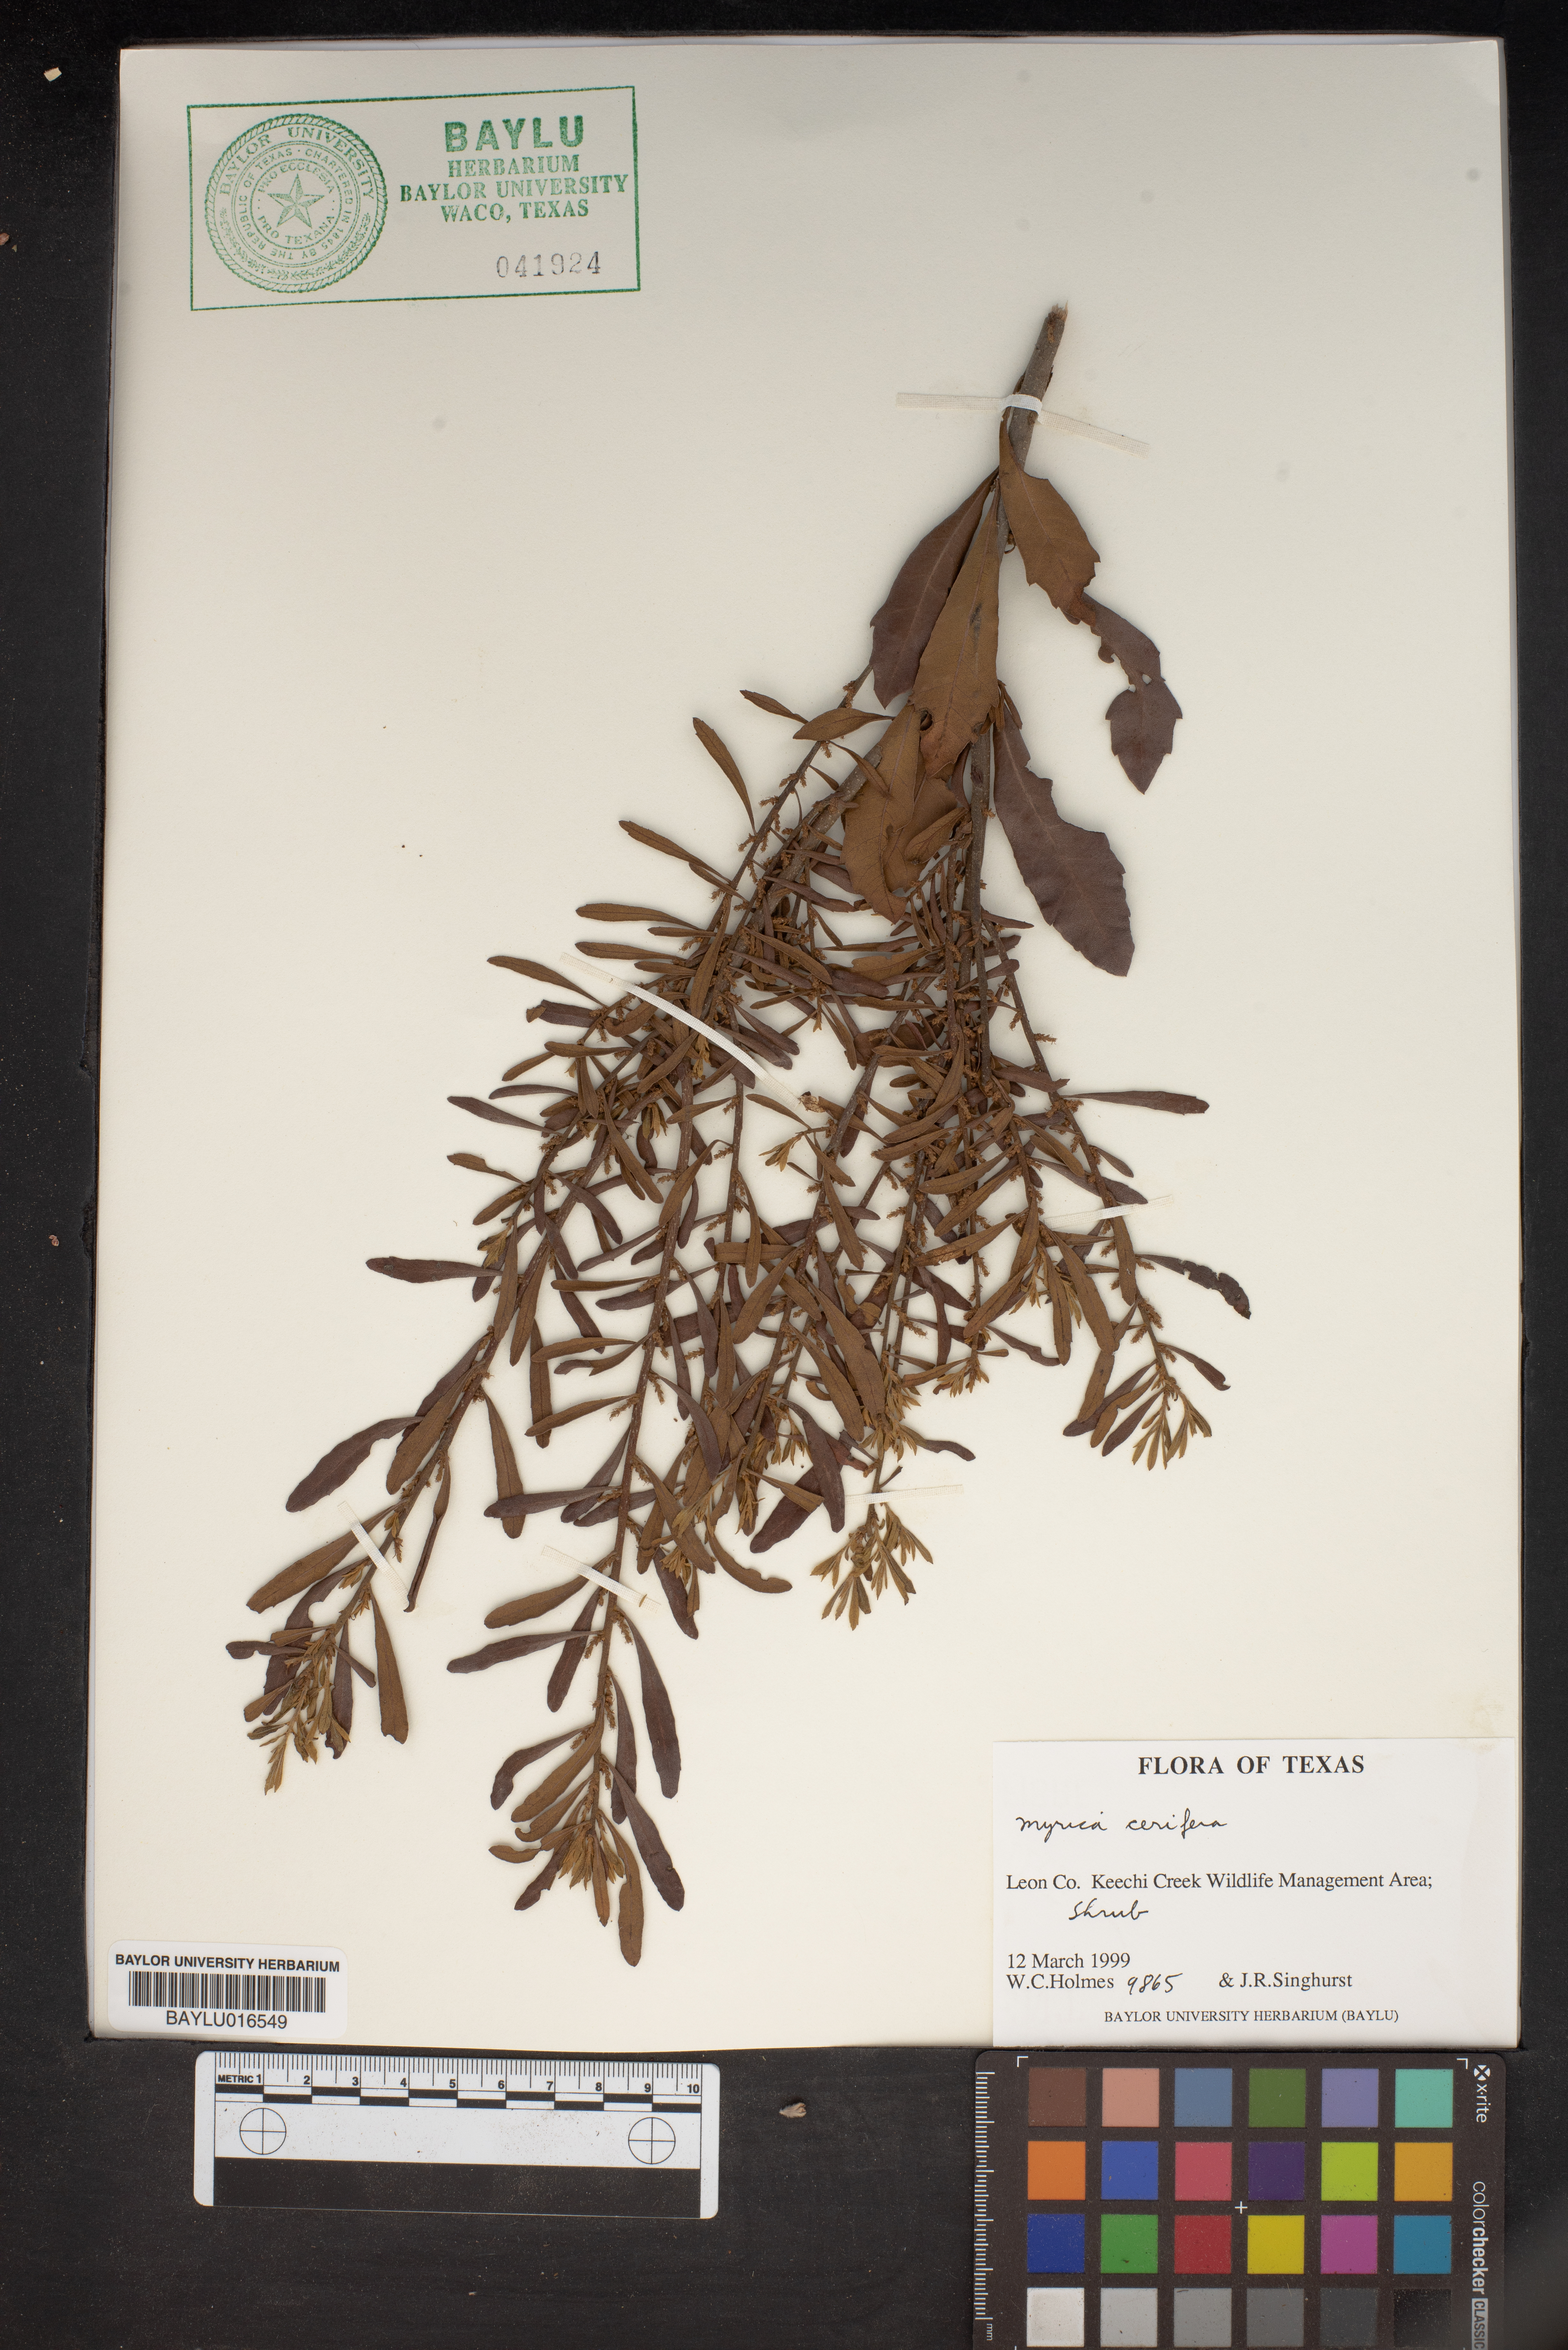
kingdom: Plantae
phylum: Tracheophyta
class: Magnoliopsida
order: Fagales
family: Myricaceae
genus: Morella
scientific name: Morella cerifera
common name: Wax myrtle
